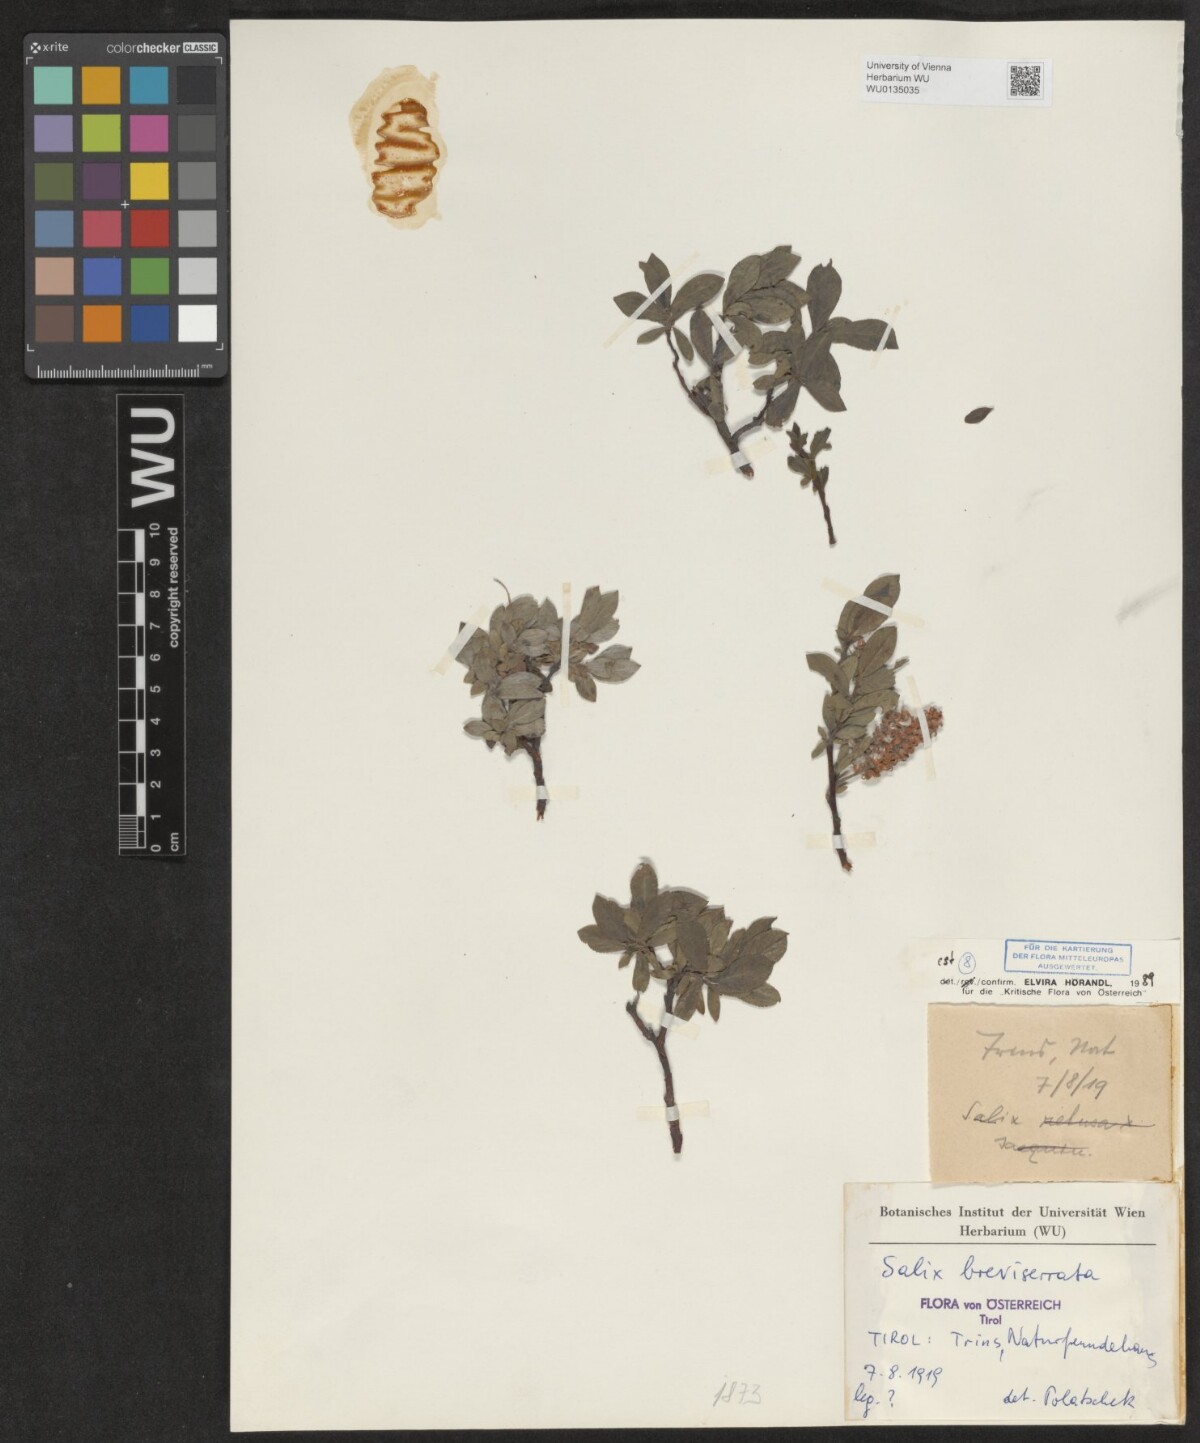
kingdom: Plantae
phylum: Tracheophyta
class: Magnoliopsida
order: Malpighiales
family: Salicaceae
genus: Salix
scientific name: Salix breviserrata
